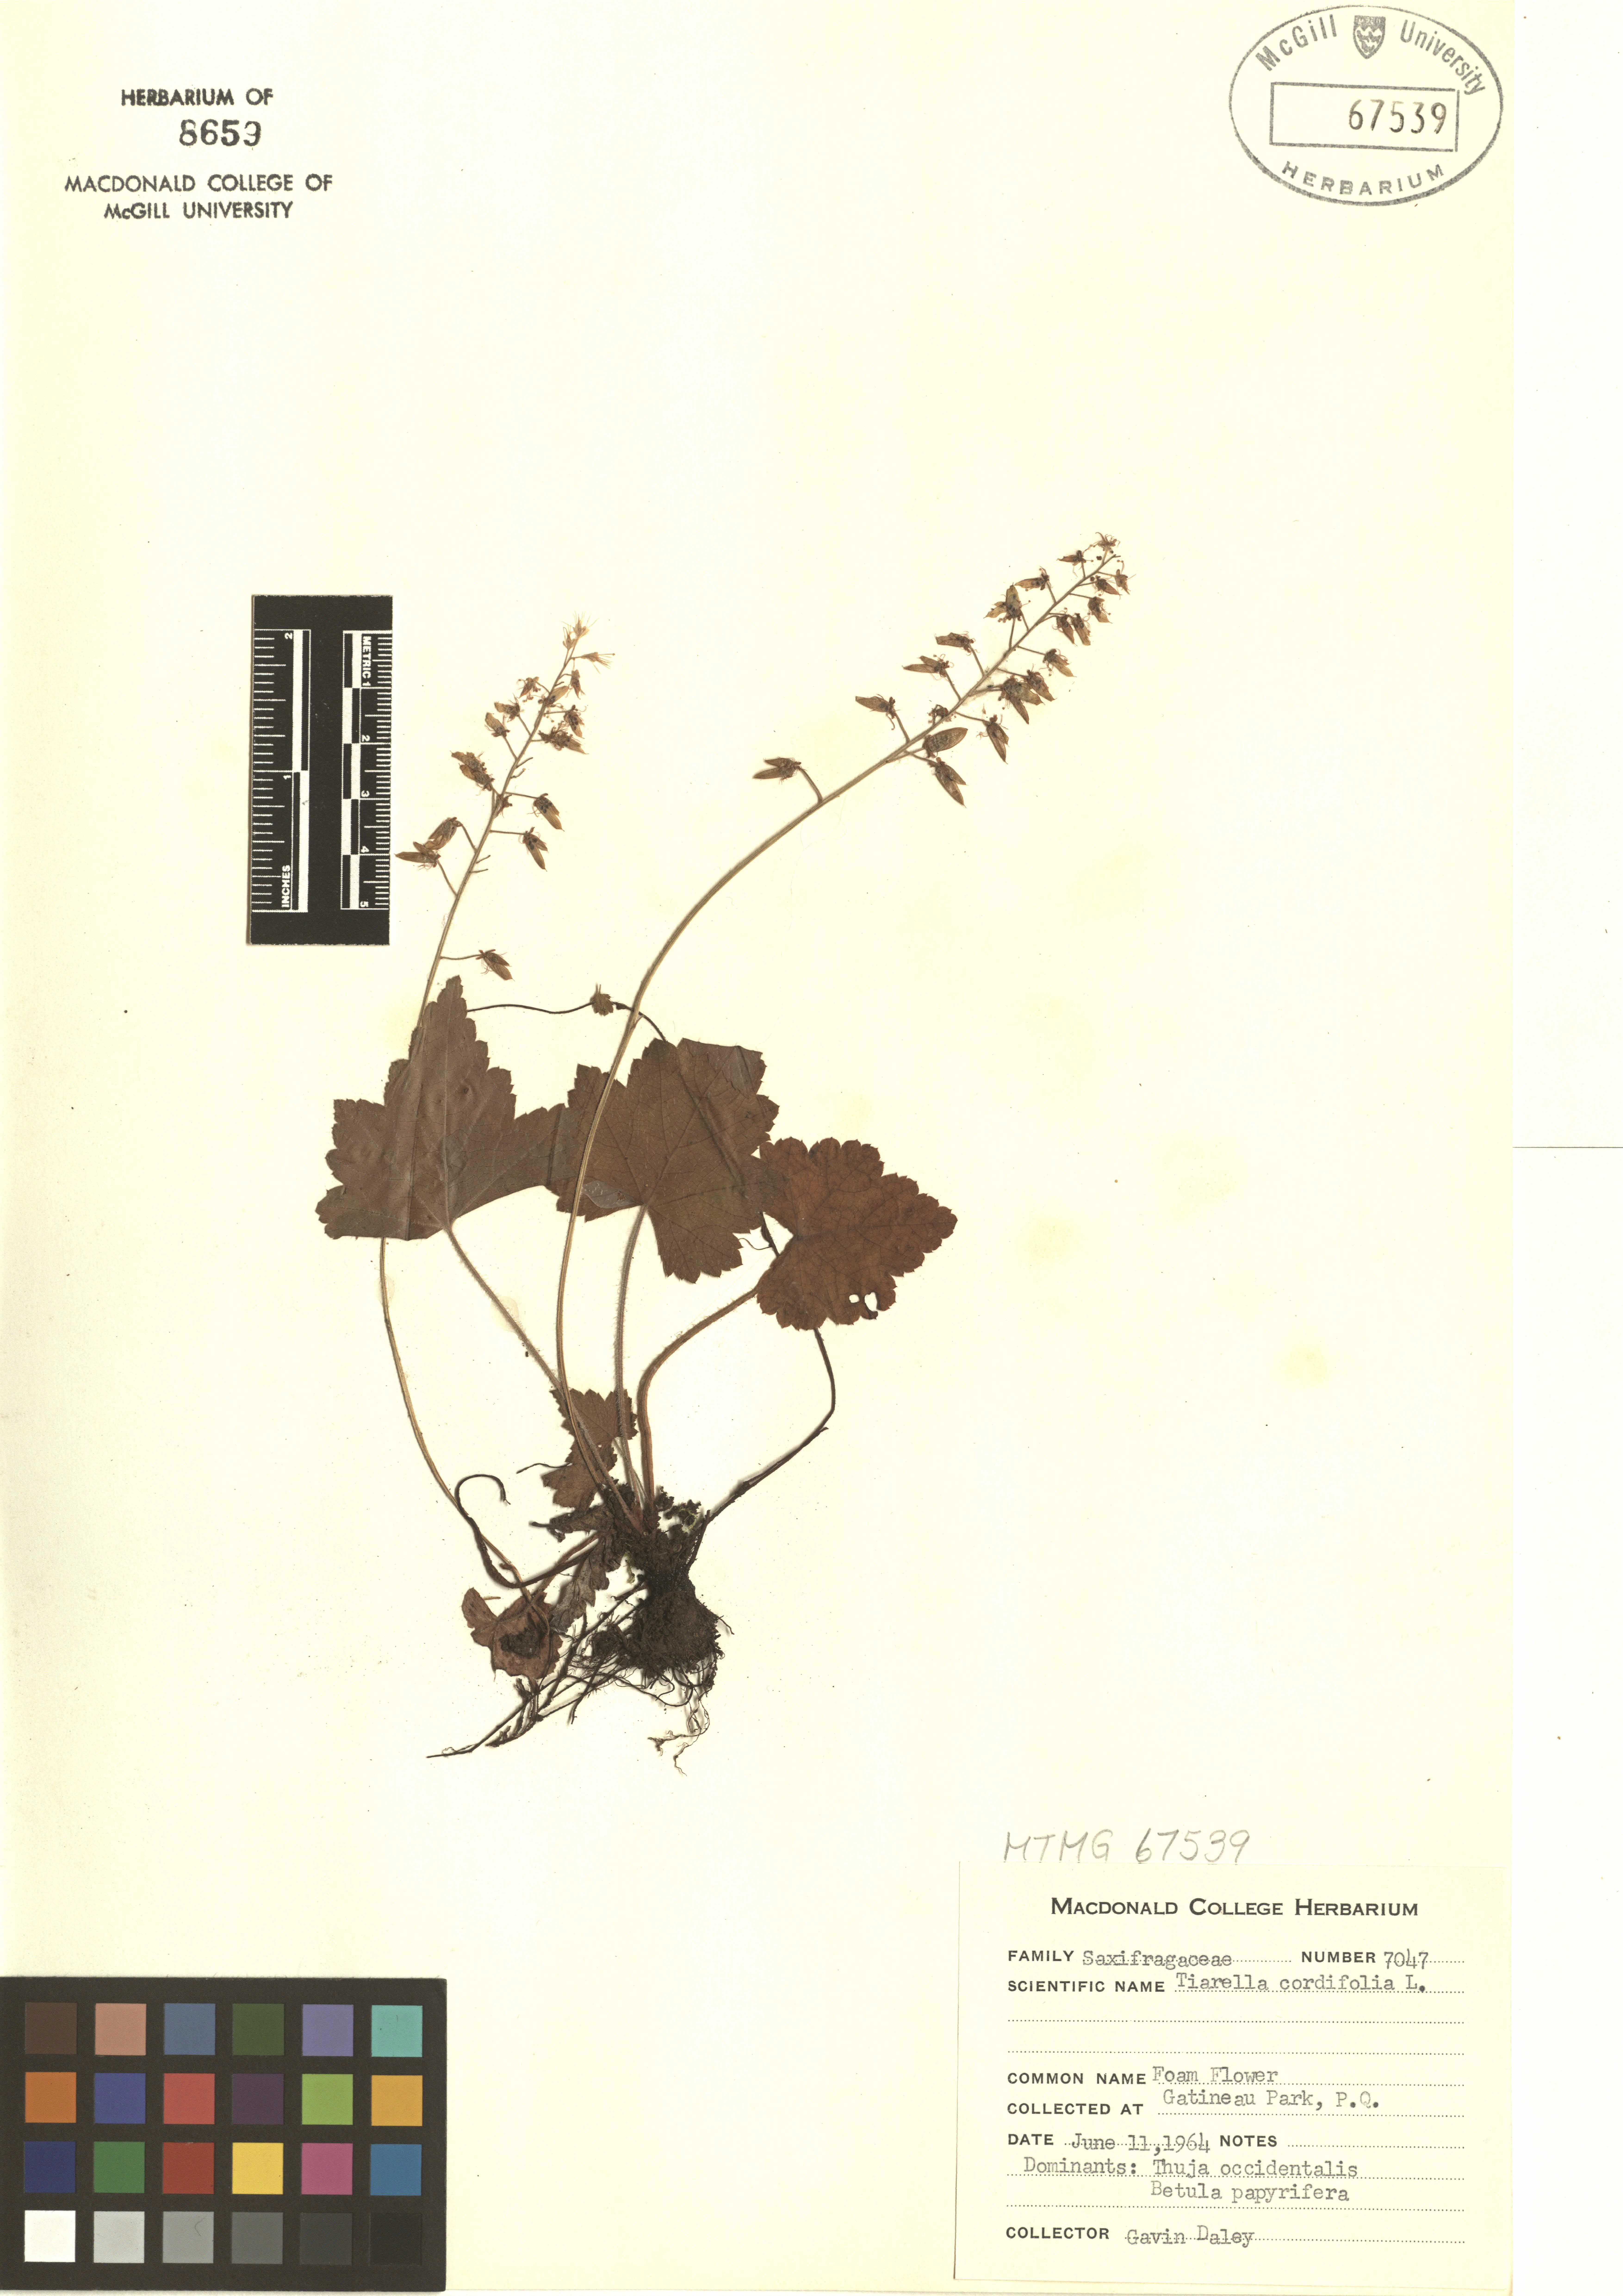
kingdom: Plantae
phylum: Tracheophyta
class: Magnoliopsida
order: Saxifragales
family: Saxifragaceae
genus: Tiarella
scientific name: Tiarella cordifolia
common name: Foamflower
